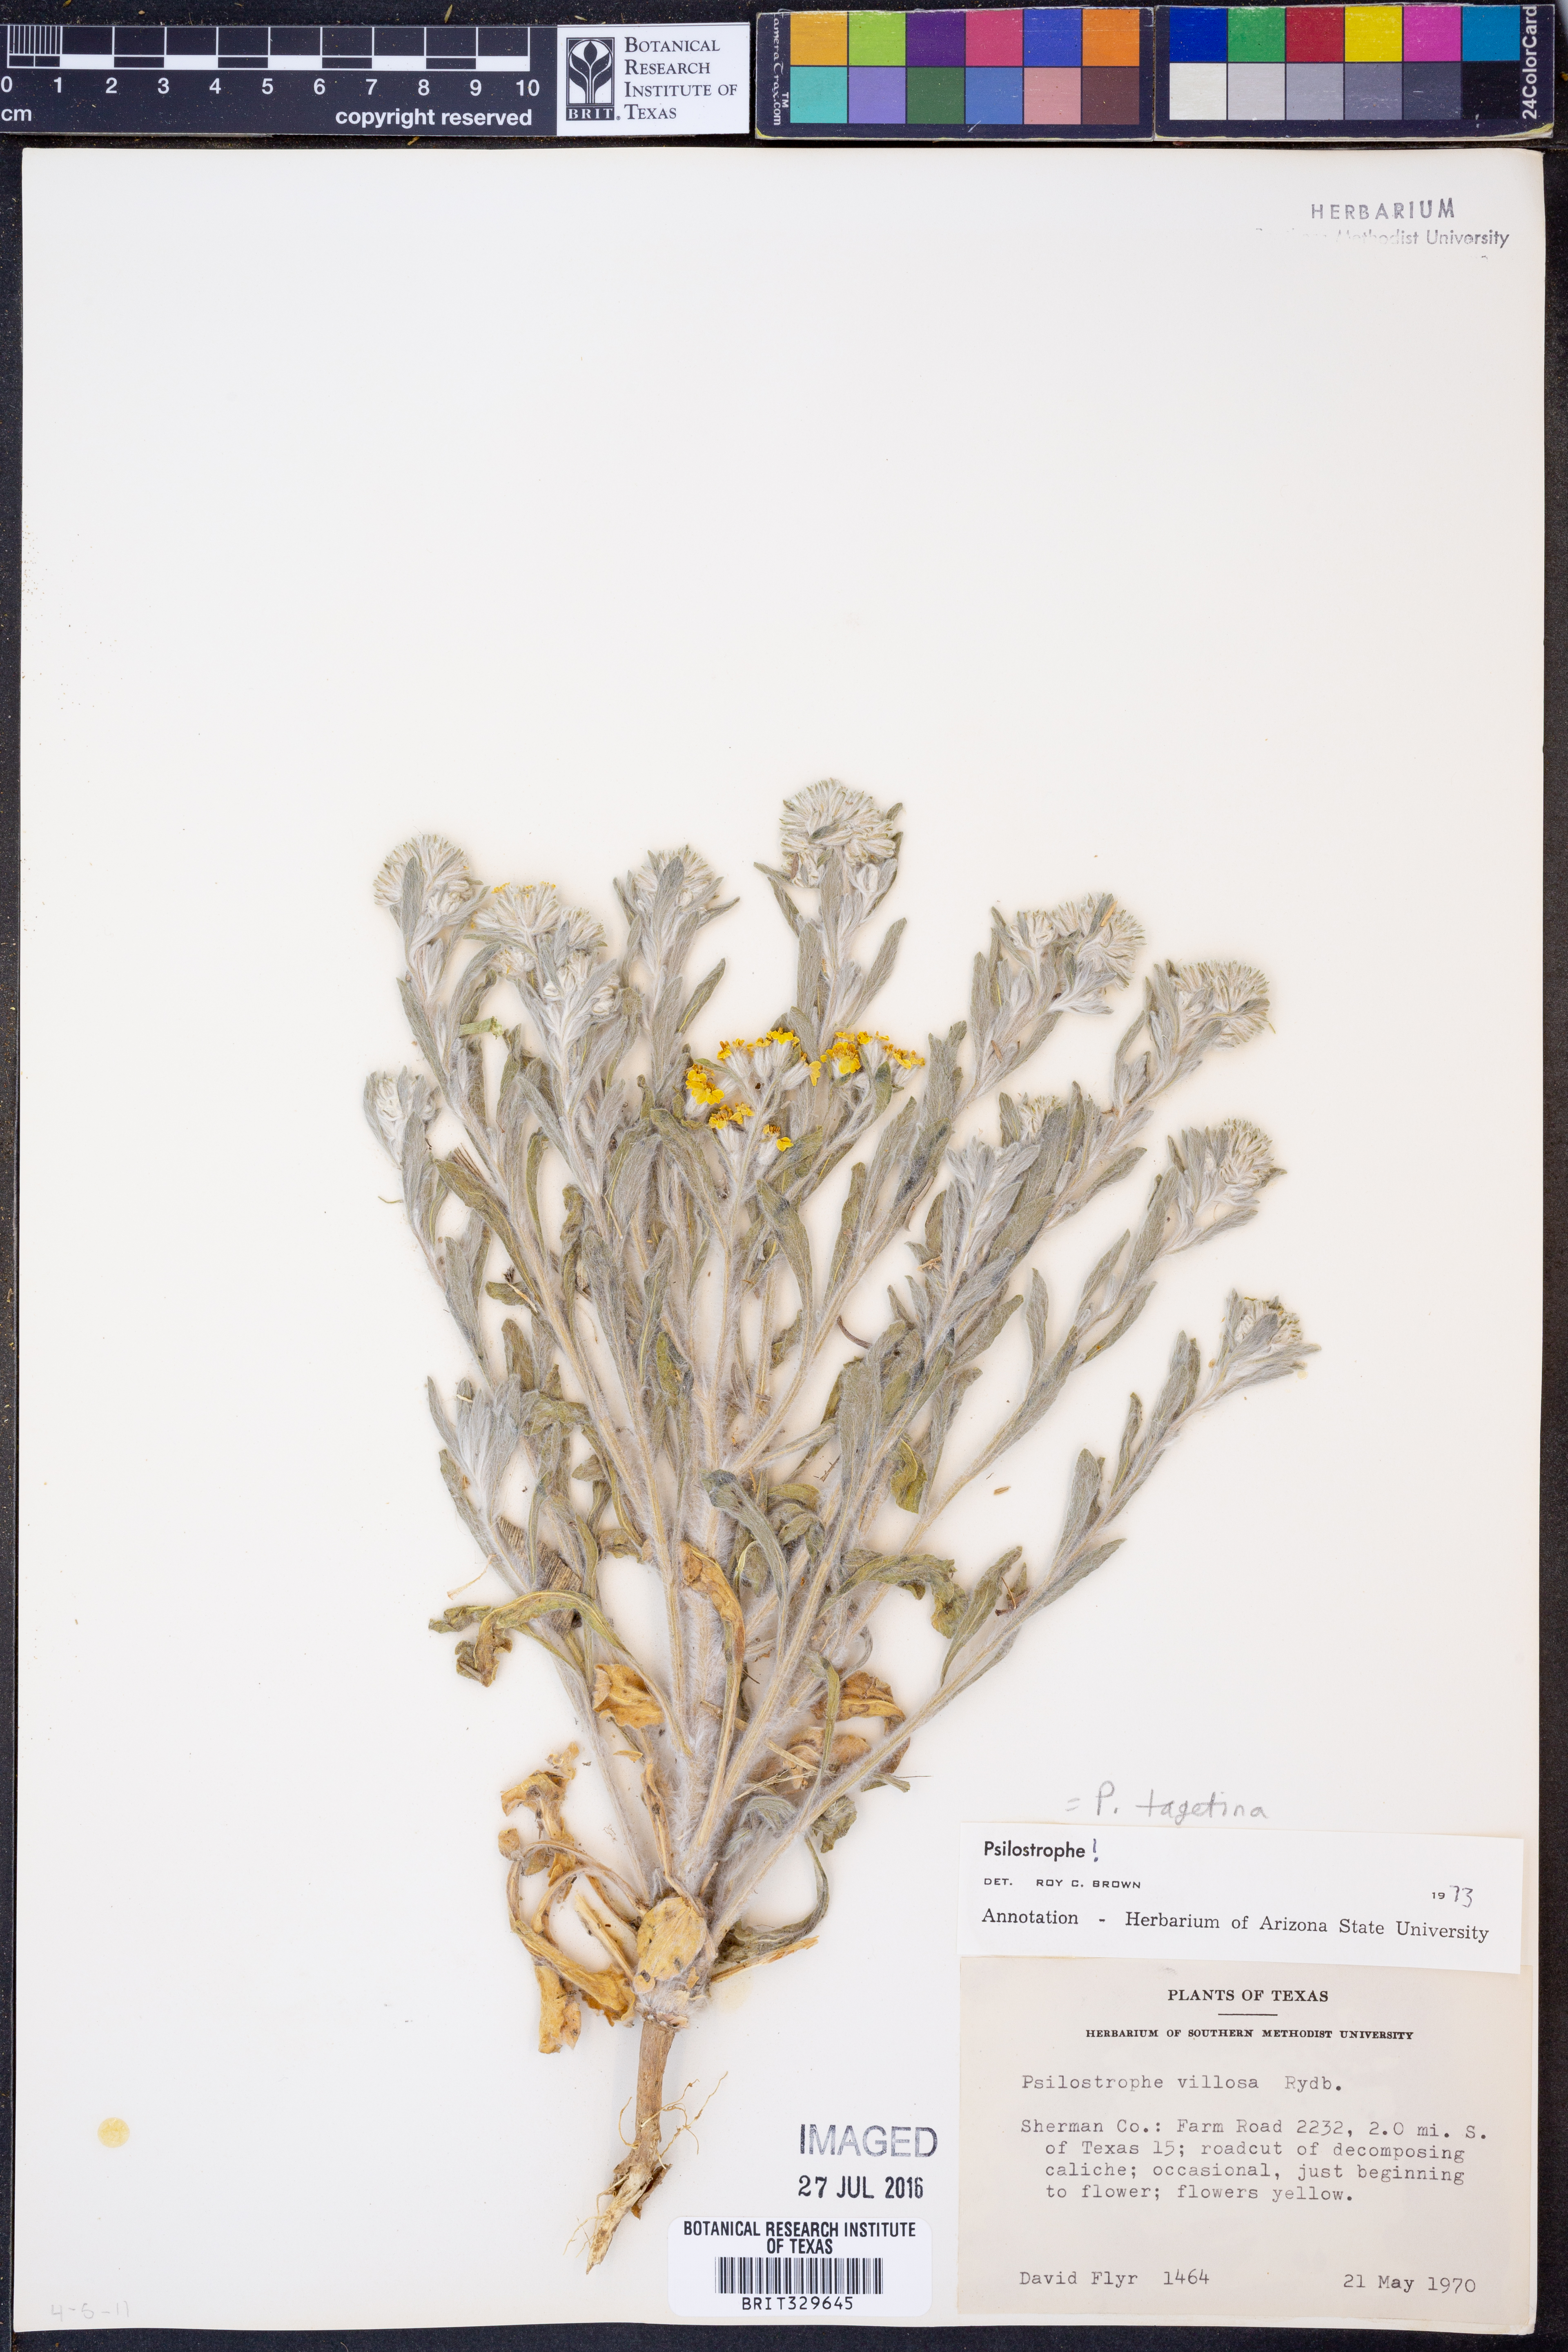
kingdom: Plantae
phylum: Tracheophyta
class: Magnoliopsida
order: Asterales
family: Asteraceae
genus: Psilostrophe
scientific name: Psilostrophe tagetina
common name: Marigold paper-flower
